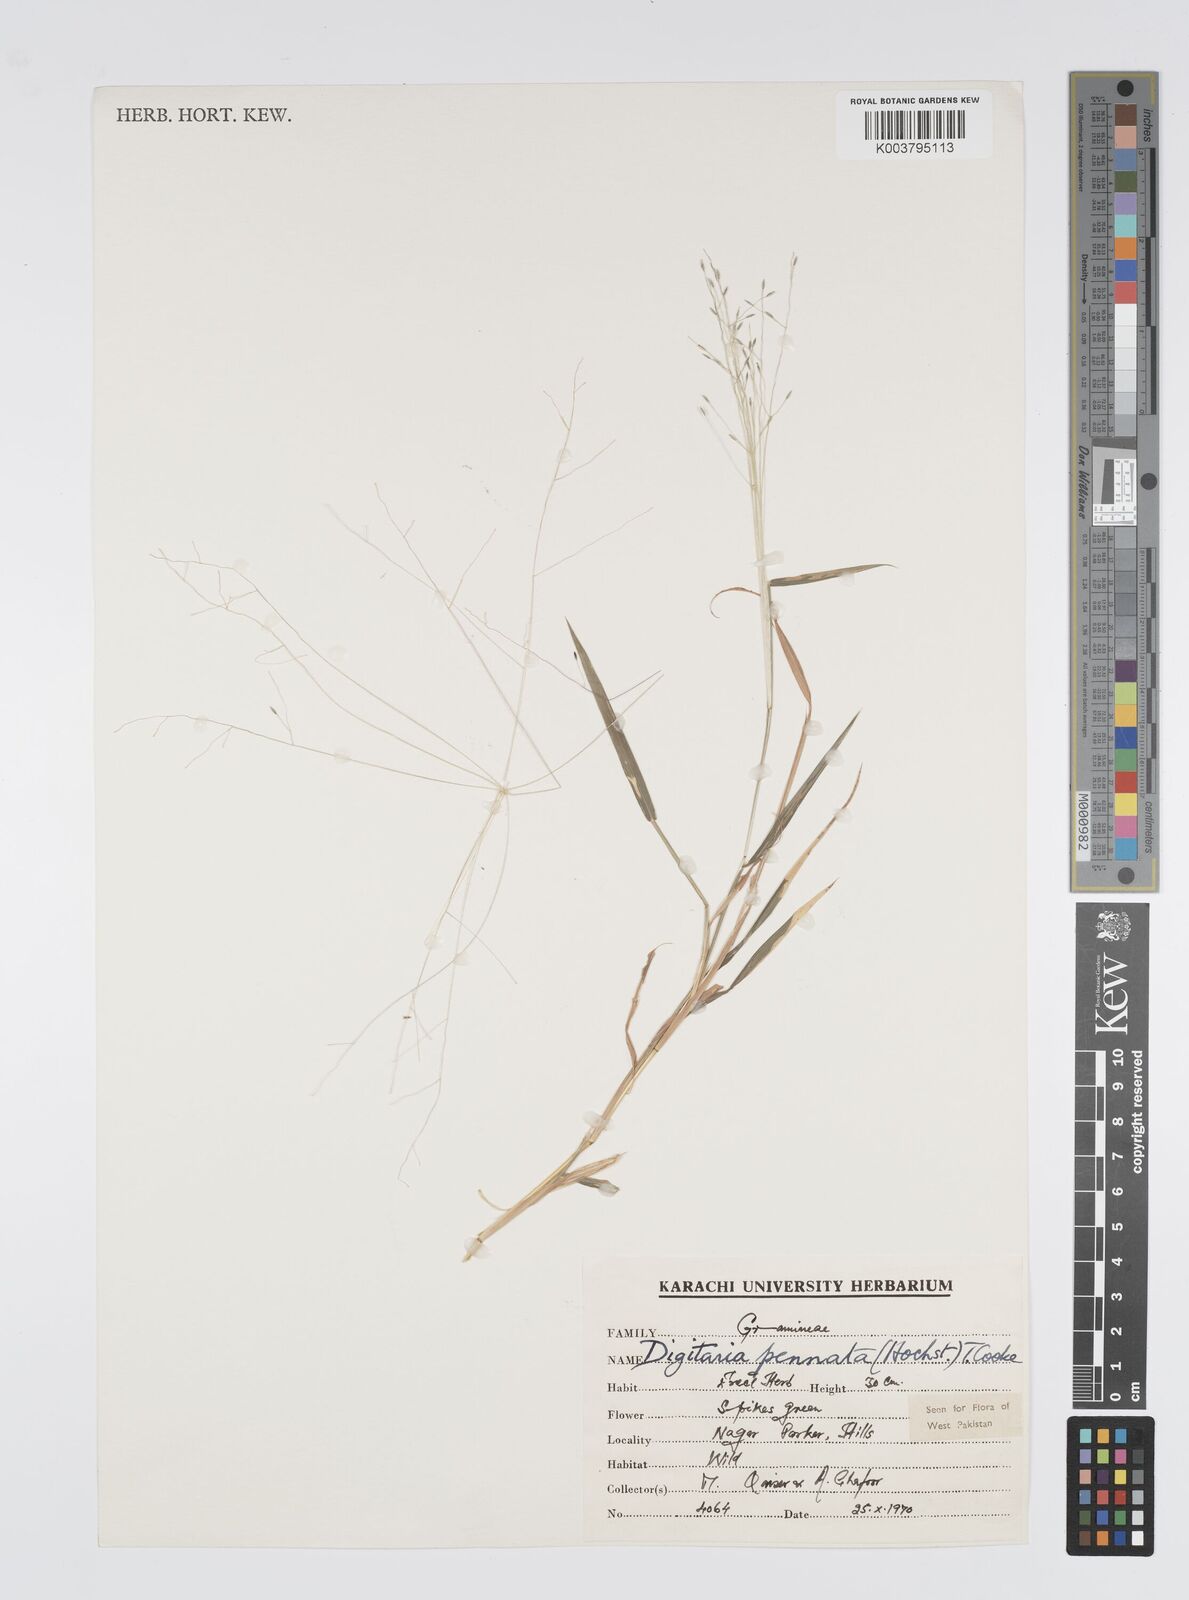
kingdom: Plantae
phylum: Tracheophyta
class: Liliopsida
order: Poales
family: Poaceae
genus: Digitaria
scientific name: Digitaria pennata
